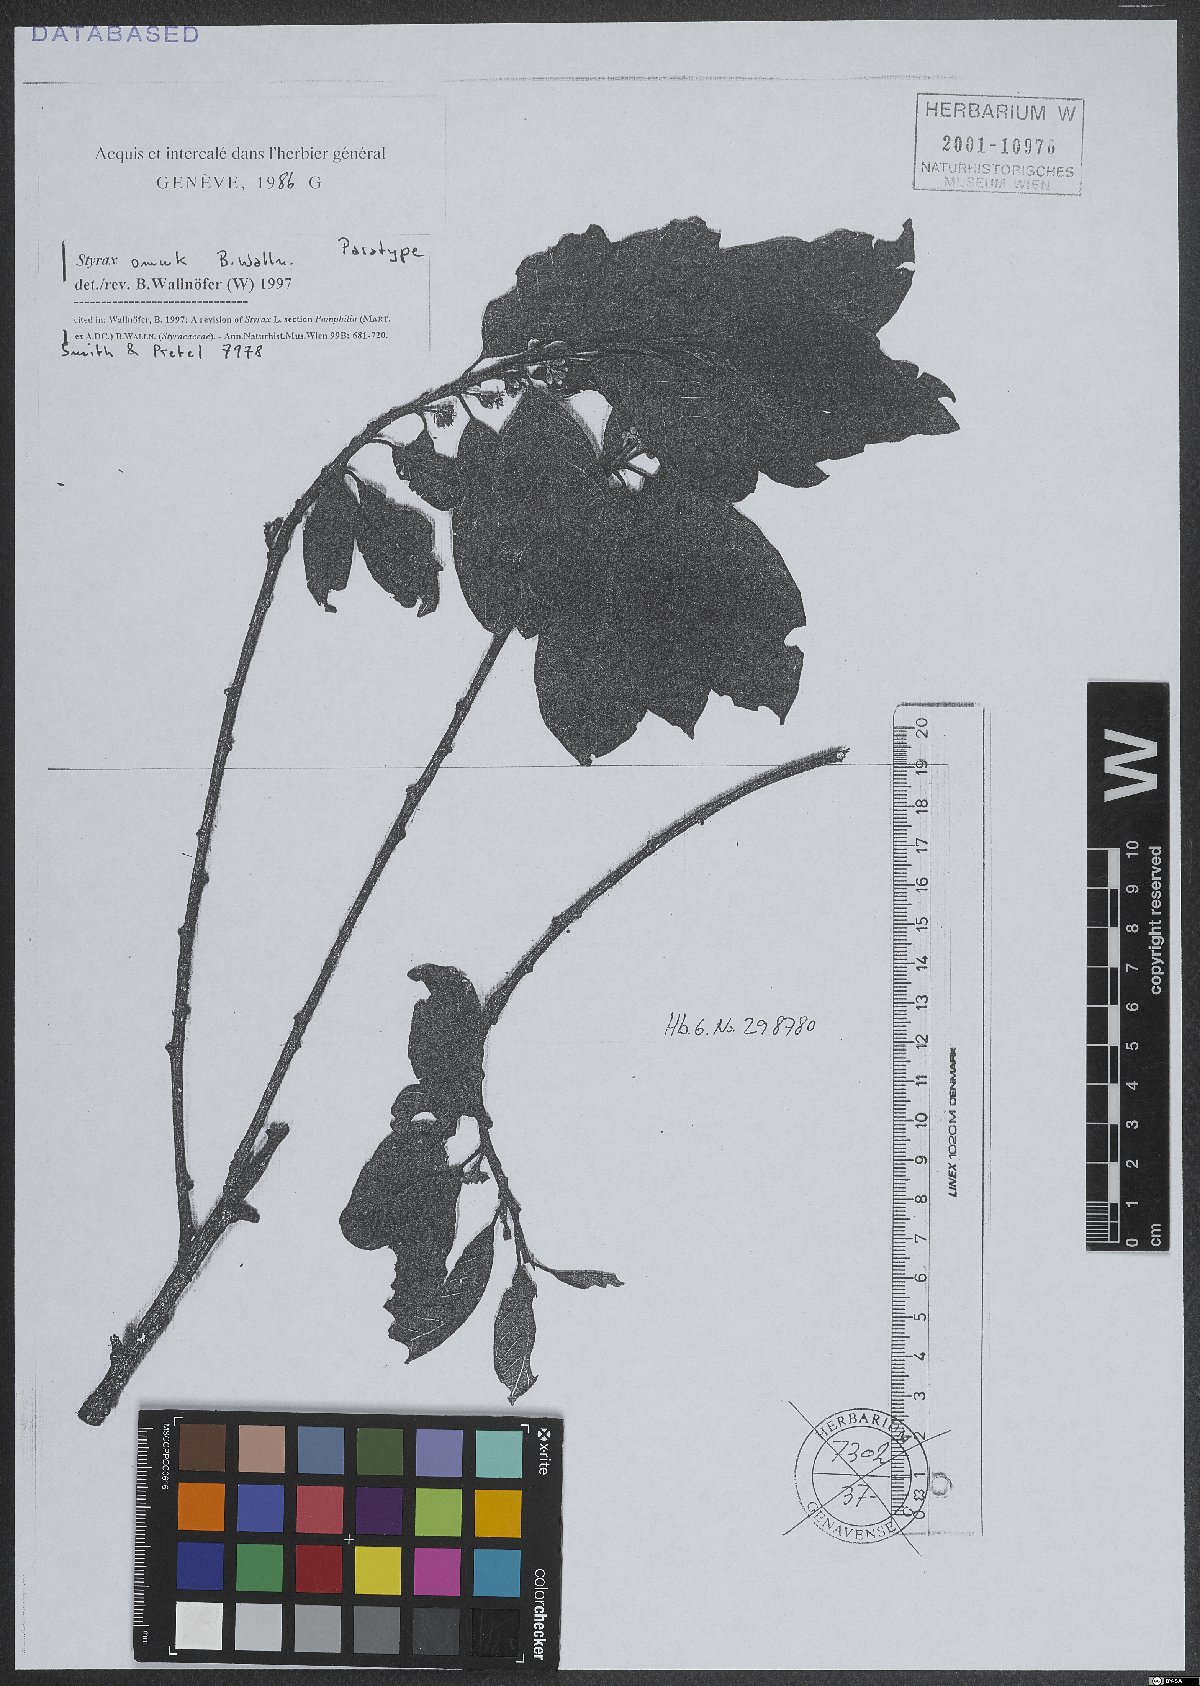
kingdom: Plantae
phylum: Tracheophyta
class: Magnoliopsida
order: Ericales
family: Styracaceae
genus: Styrax
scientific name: Styrax omuk
